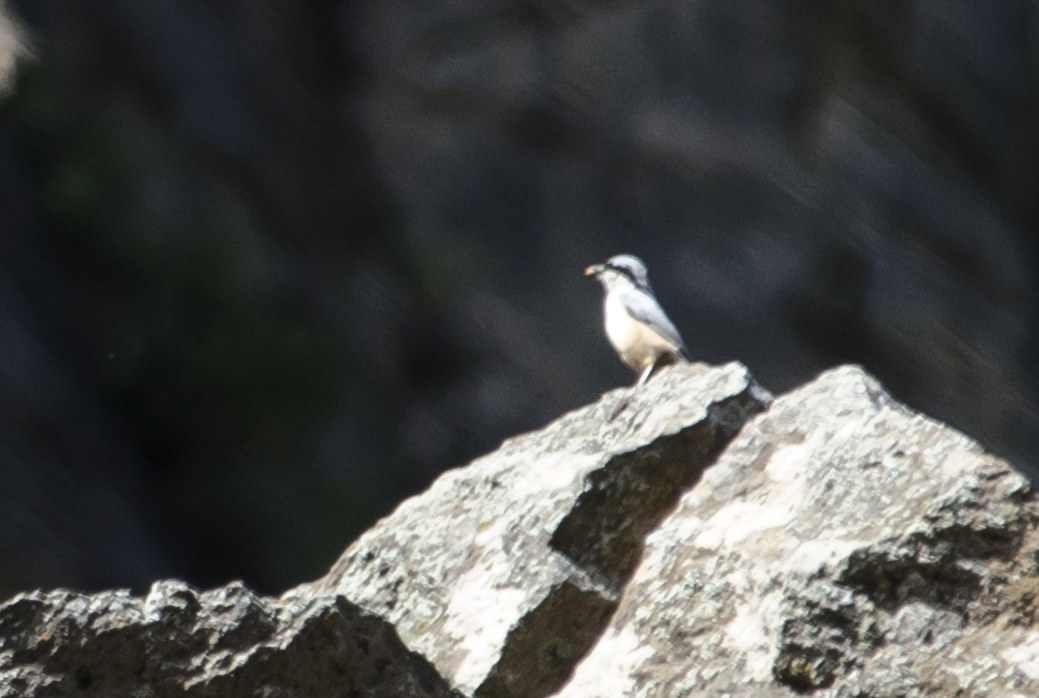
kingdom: Animalia
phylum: Chordata
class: Aves
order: Passeriformes
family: Sittidae
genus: Sitta
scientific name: Sitta neumayer
